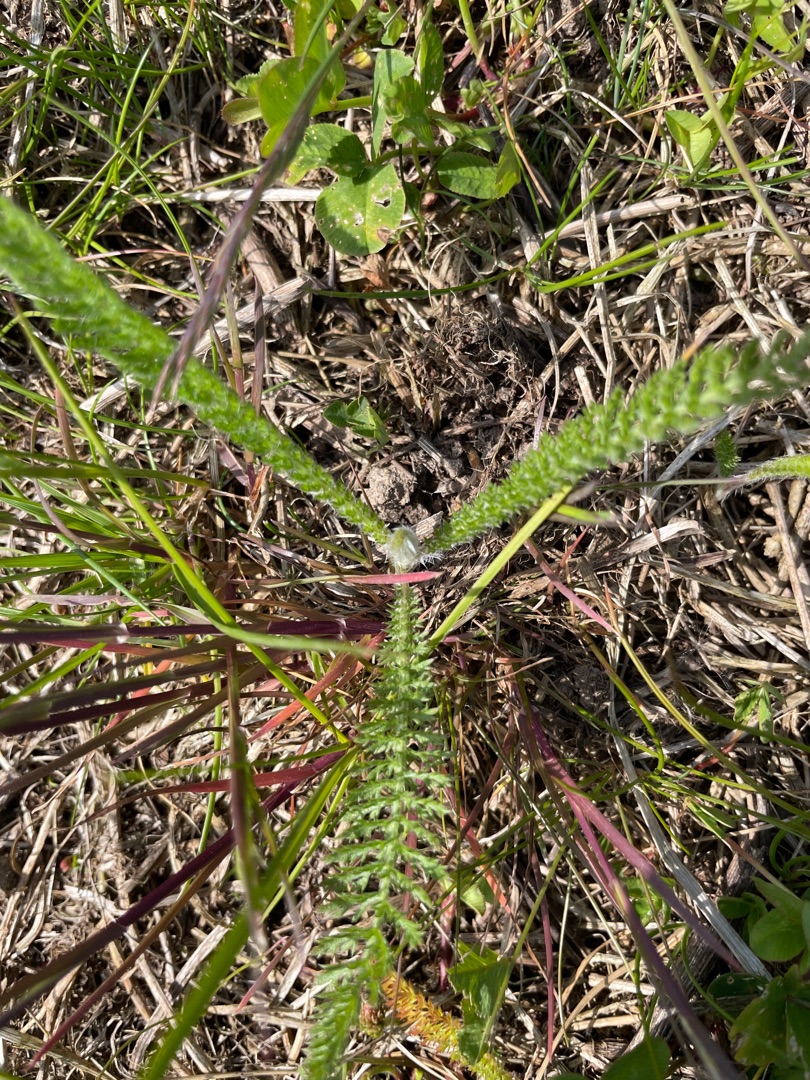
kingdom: Plantae
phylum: Tracheophyta
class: Magnoliopsida
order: Asterales
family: Asteraceae
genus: Achillea
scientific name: Achillea millefolium
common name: Almindelig røllike
